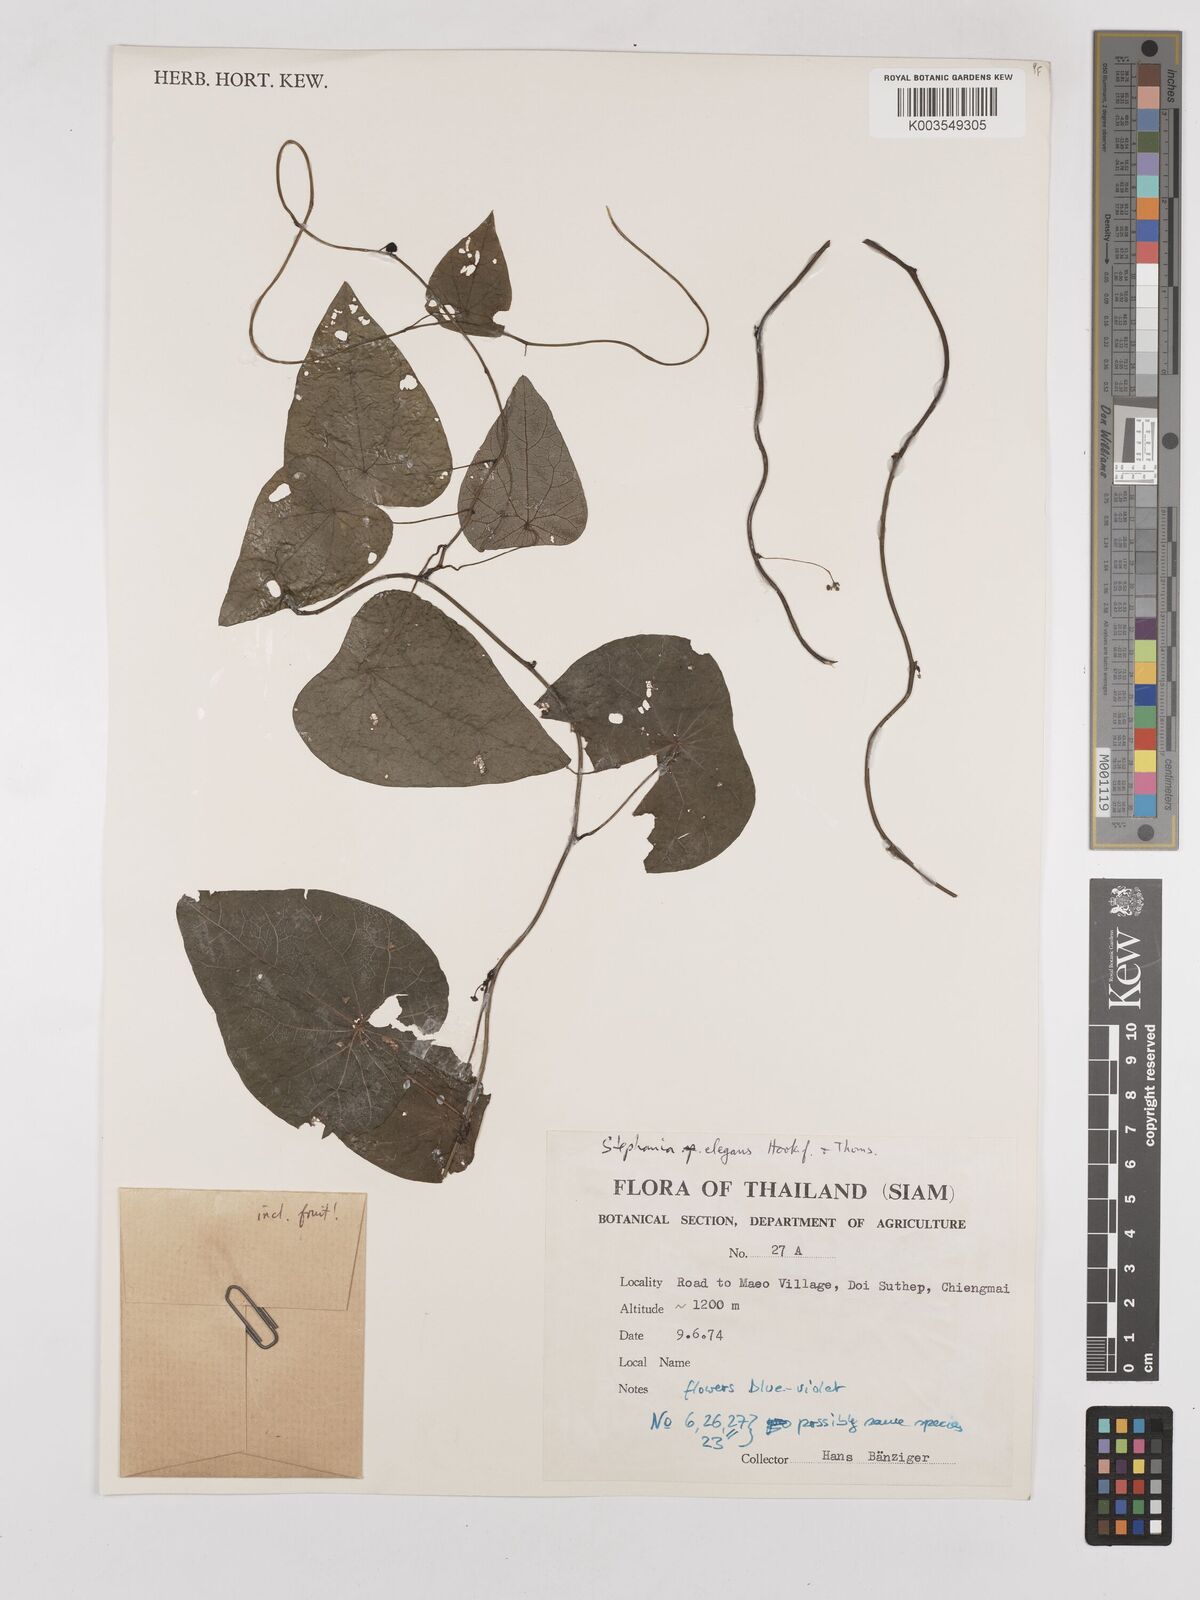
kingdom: Plantae
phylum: Tracheophyta
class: Magnoliopsida
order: Ranunculales
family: Menispermaceae
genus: Stephania
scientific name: Stephania elegans
